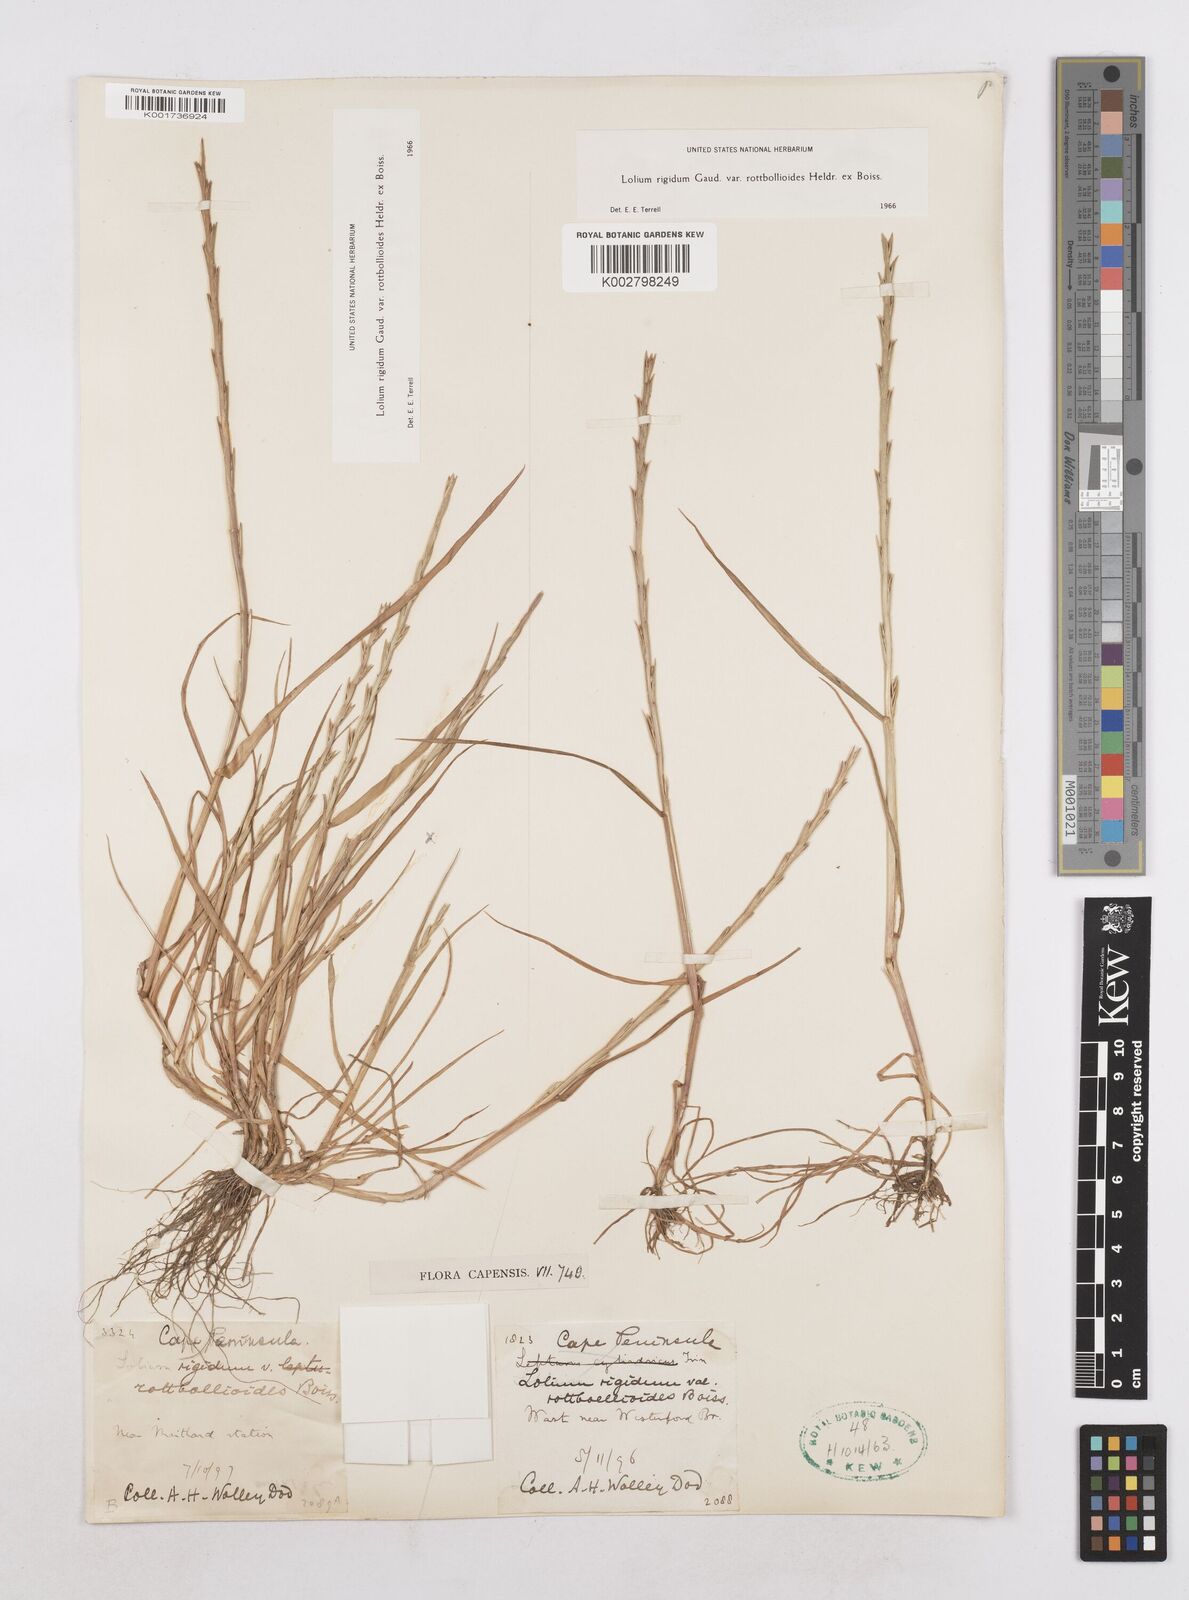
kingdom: Plantae
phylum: Tracheophyta
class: Liliopsida
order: Poales
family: Poaceae
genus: Lolium
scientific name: Lolium rigidum
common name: Wimmera ryegrass
